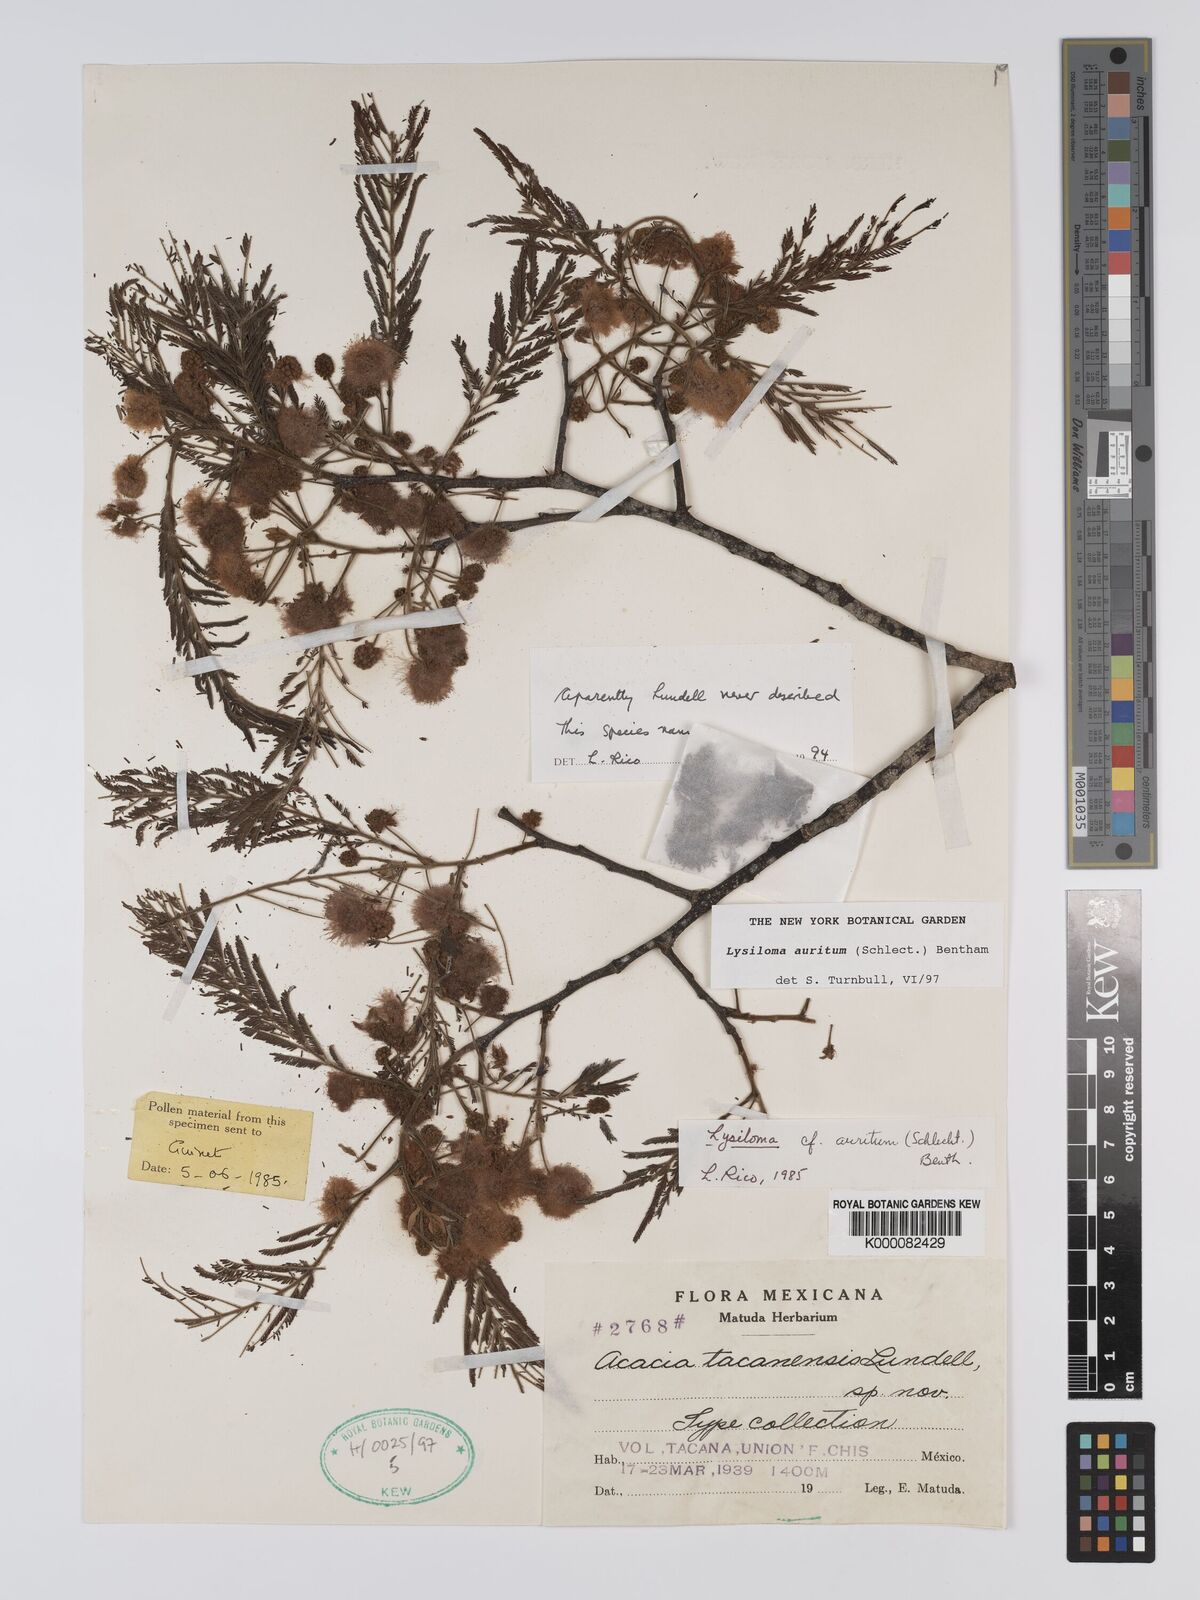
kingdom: Plantae
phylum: Tracheophyta
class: Magnoliopsida
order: Fabales
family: Fabaceae
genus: Lysiloma
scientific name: Lysiloma
